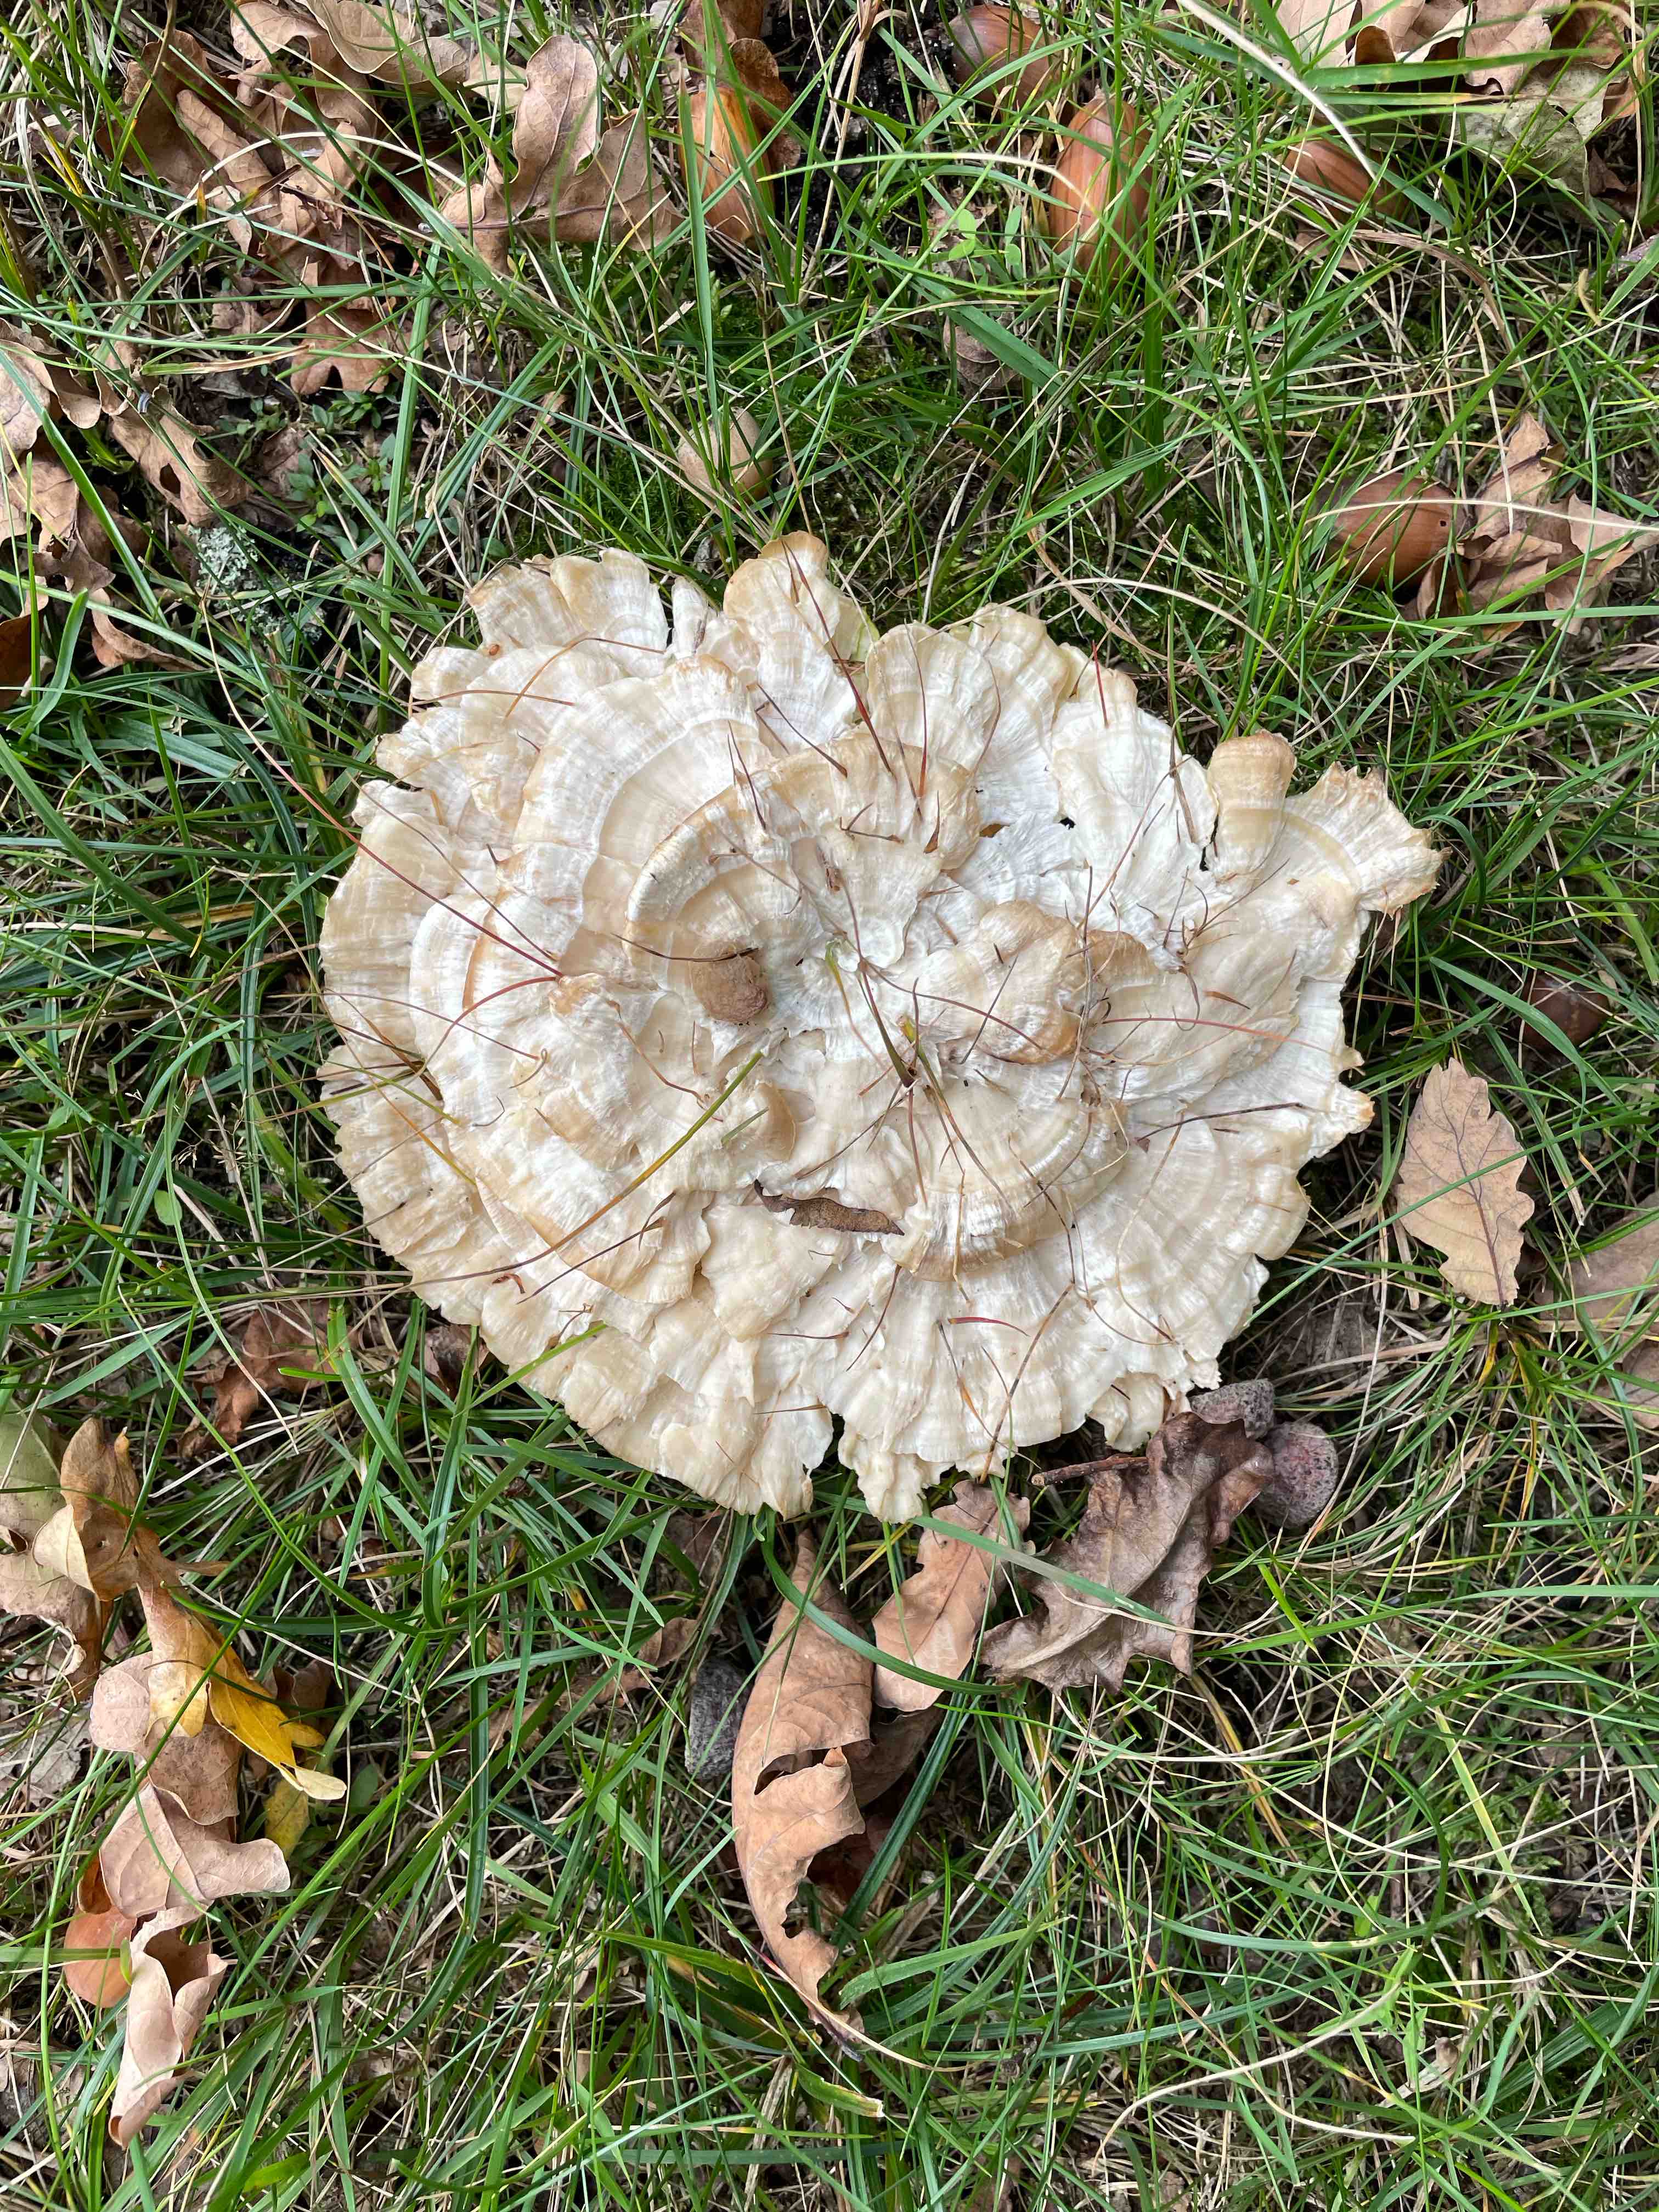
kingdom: Fungi
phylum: Basidiomycota
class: Agaricomycetes
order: Polyporales
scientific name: Polyporales
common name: poresvampordenen
